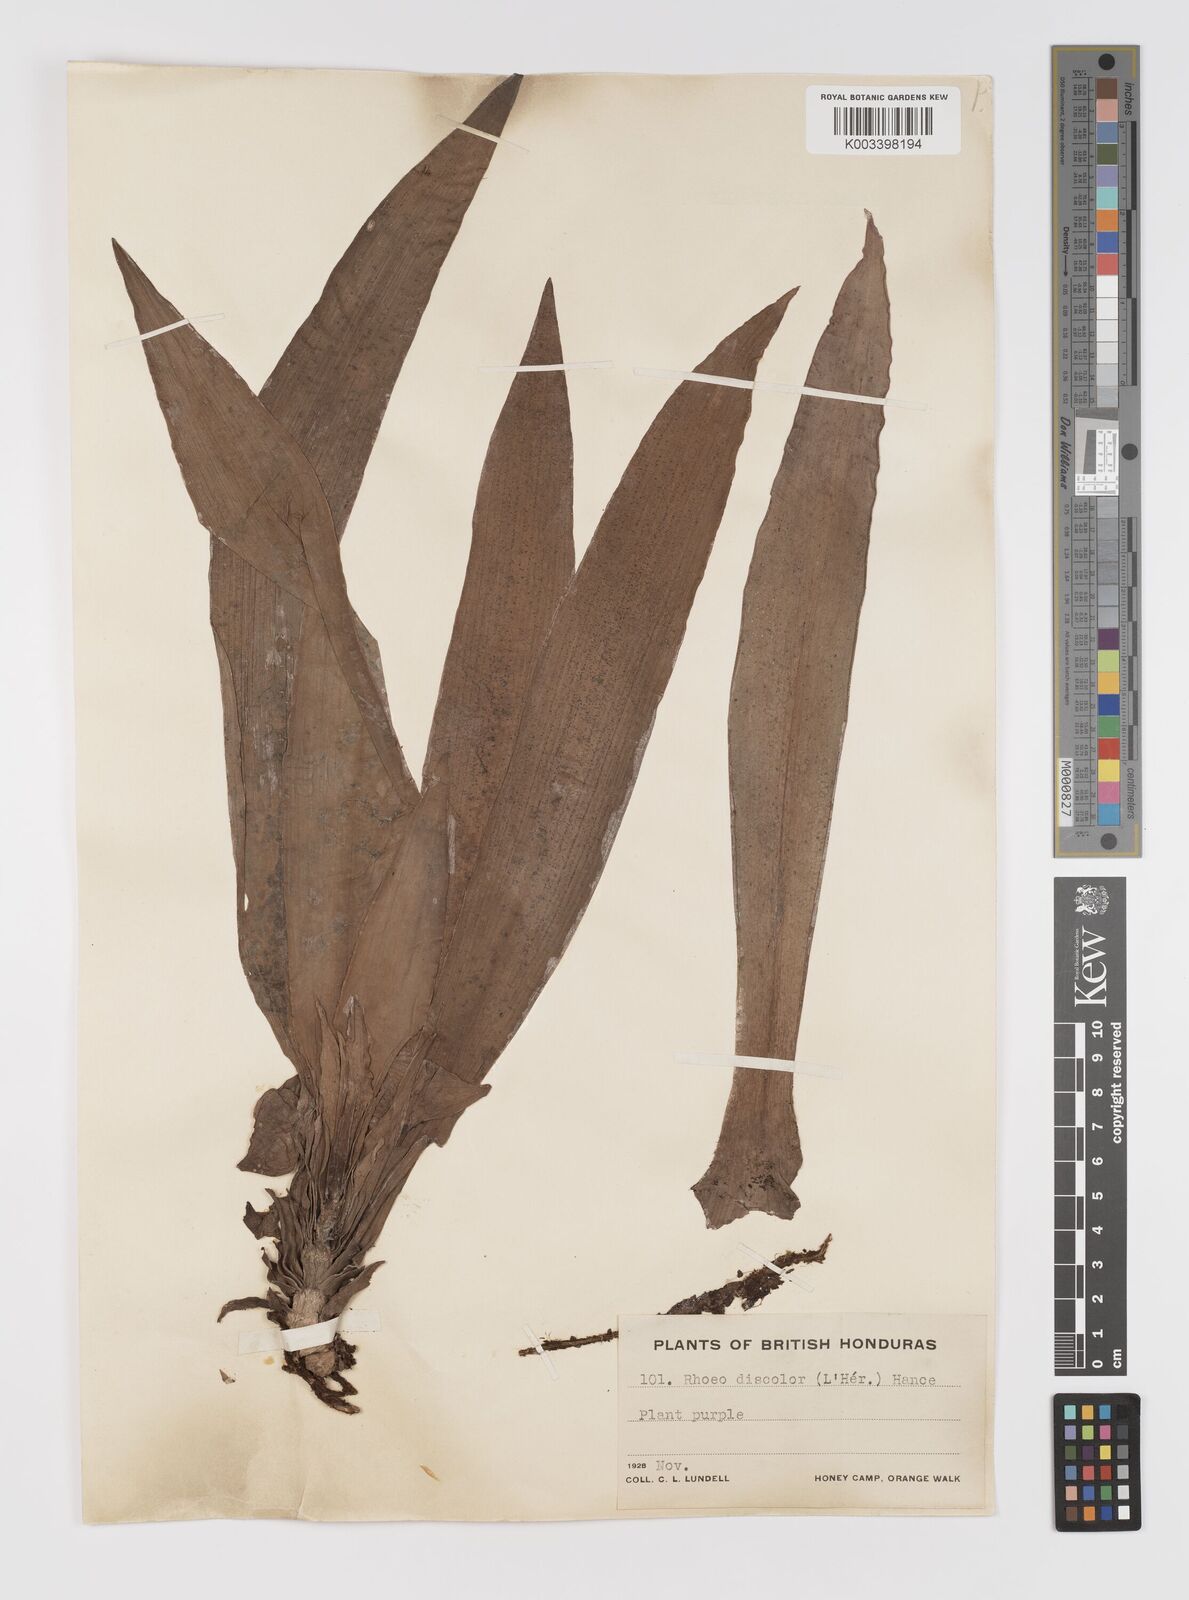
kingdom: Plantae
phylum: Tracheophyta
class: Liliopsida
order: Commelinales
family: Commelinaceae
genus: Tradescantia
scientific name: Tradescantia spathacea
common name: Boatlily
